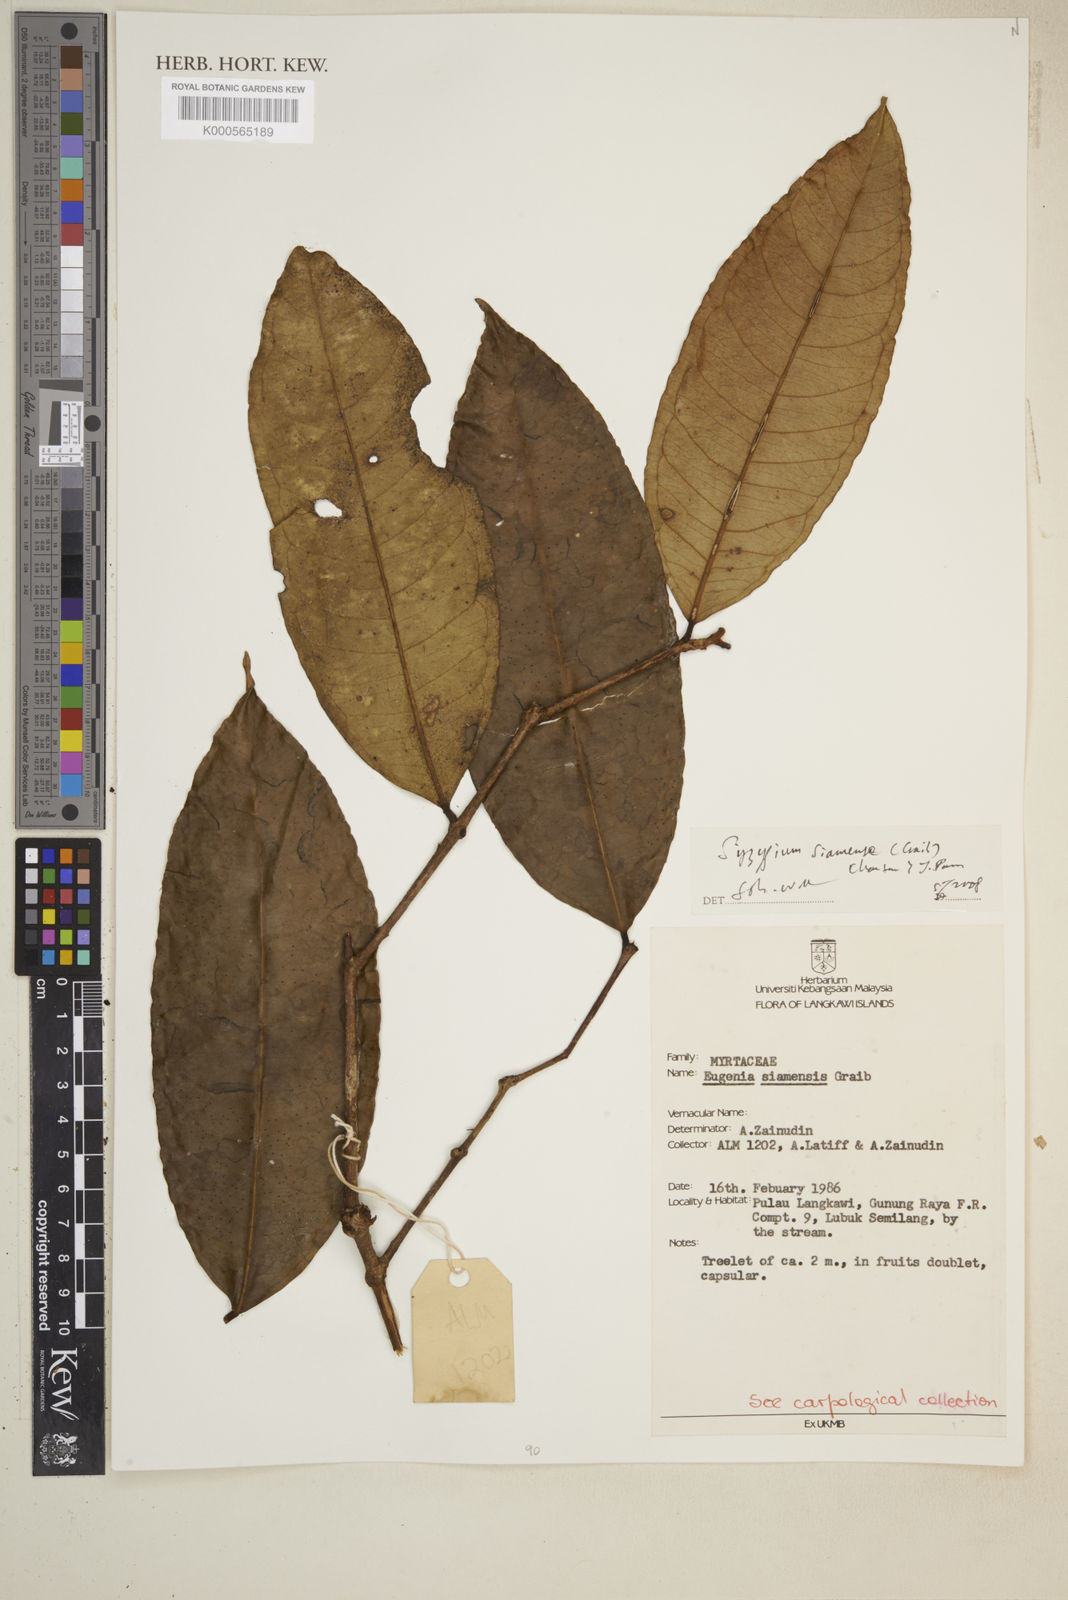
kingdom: Plantae
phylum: Tracheophyta
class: Magnoliopsida
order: Myrtales
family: Myrtaceae
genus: Syzygium
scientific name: Syzygium siamense
